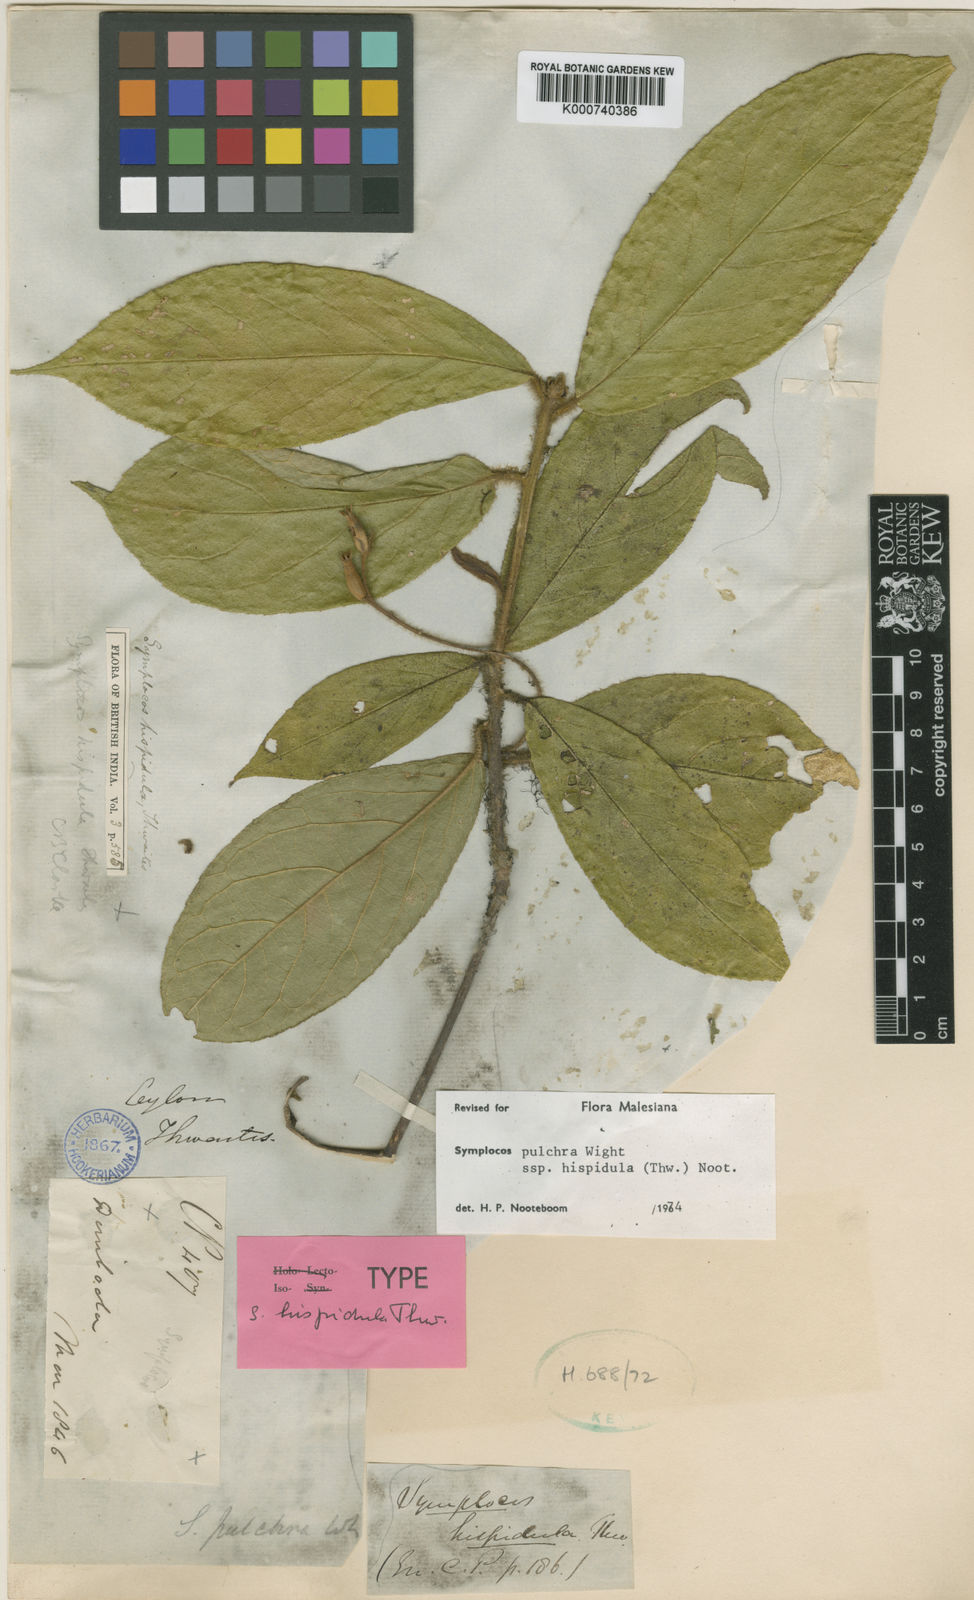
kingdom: Plantae
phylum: Tracheophyta
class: Magnoliopsida
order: Ericales
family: Symplocaceae
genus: Symplocos
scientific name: Symplocos pulchra
